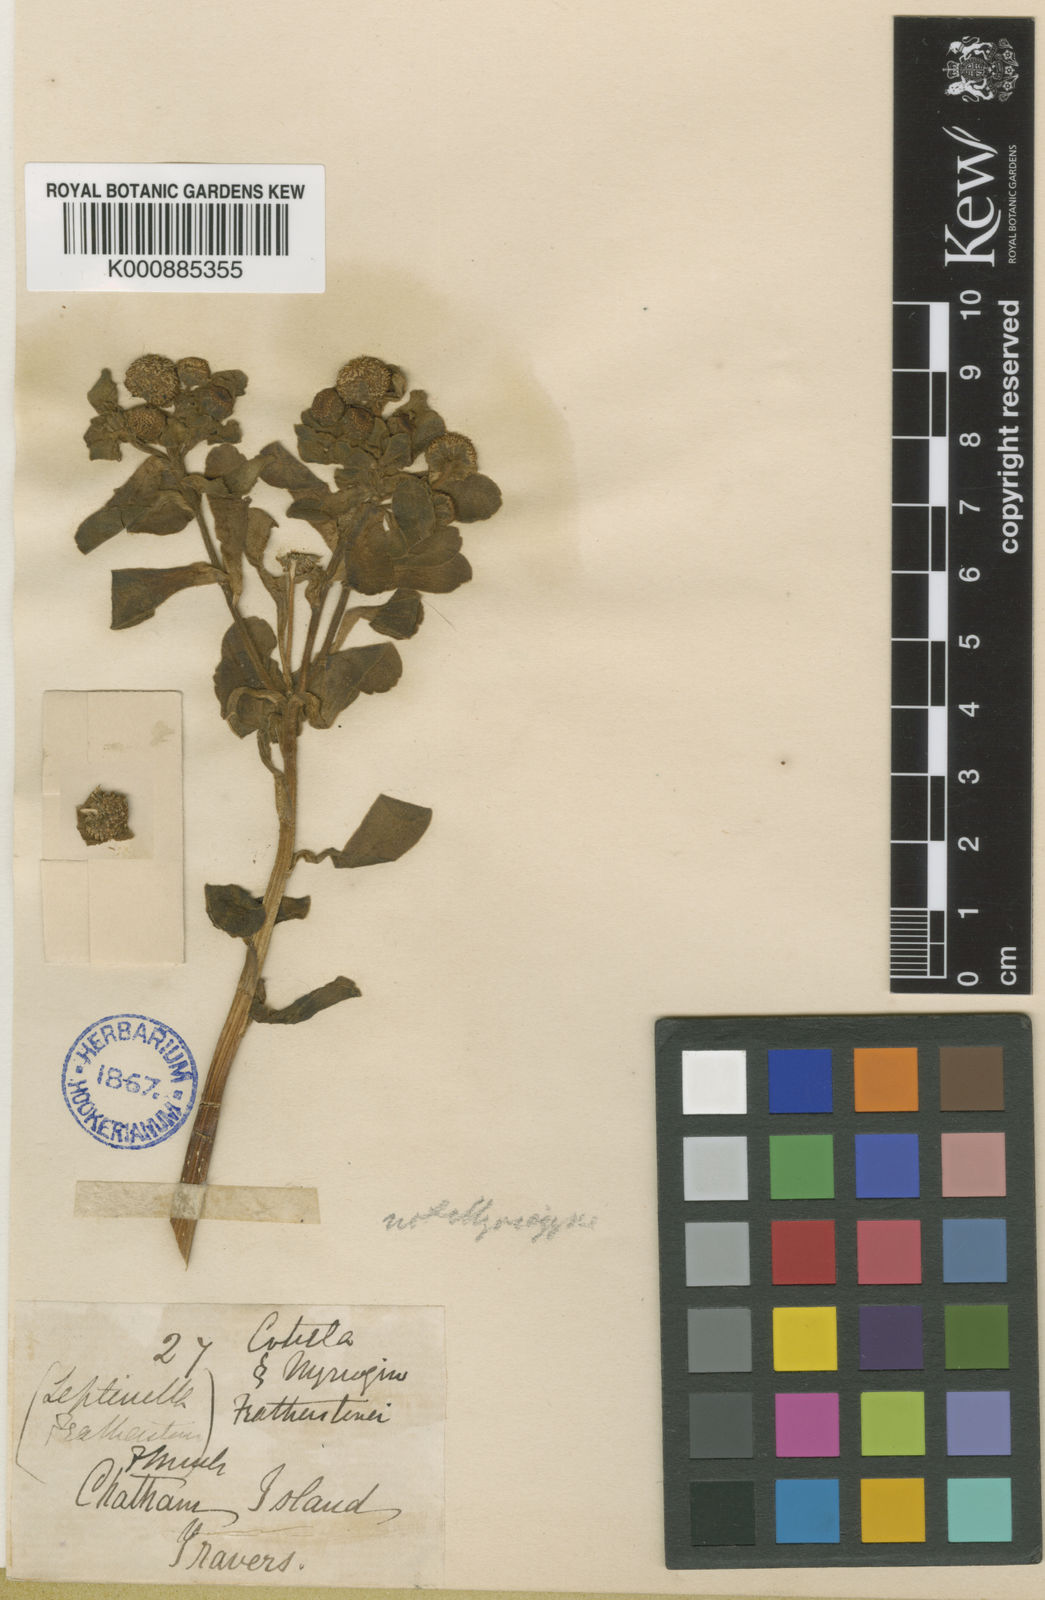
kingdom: Plantae
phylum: Tracheophyta
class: Magnoliopsida
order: Asterales
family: Asteraceae
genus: Leptinella
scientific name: Leptinella
